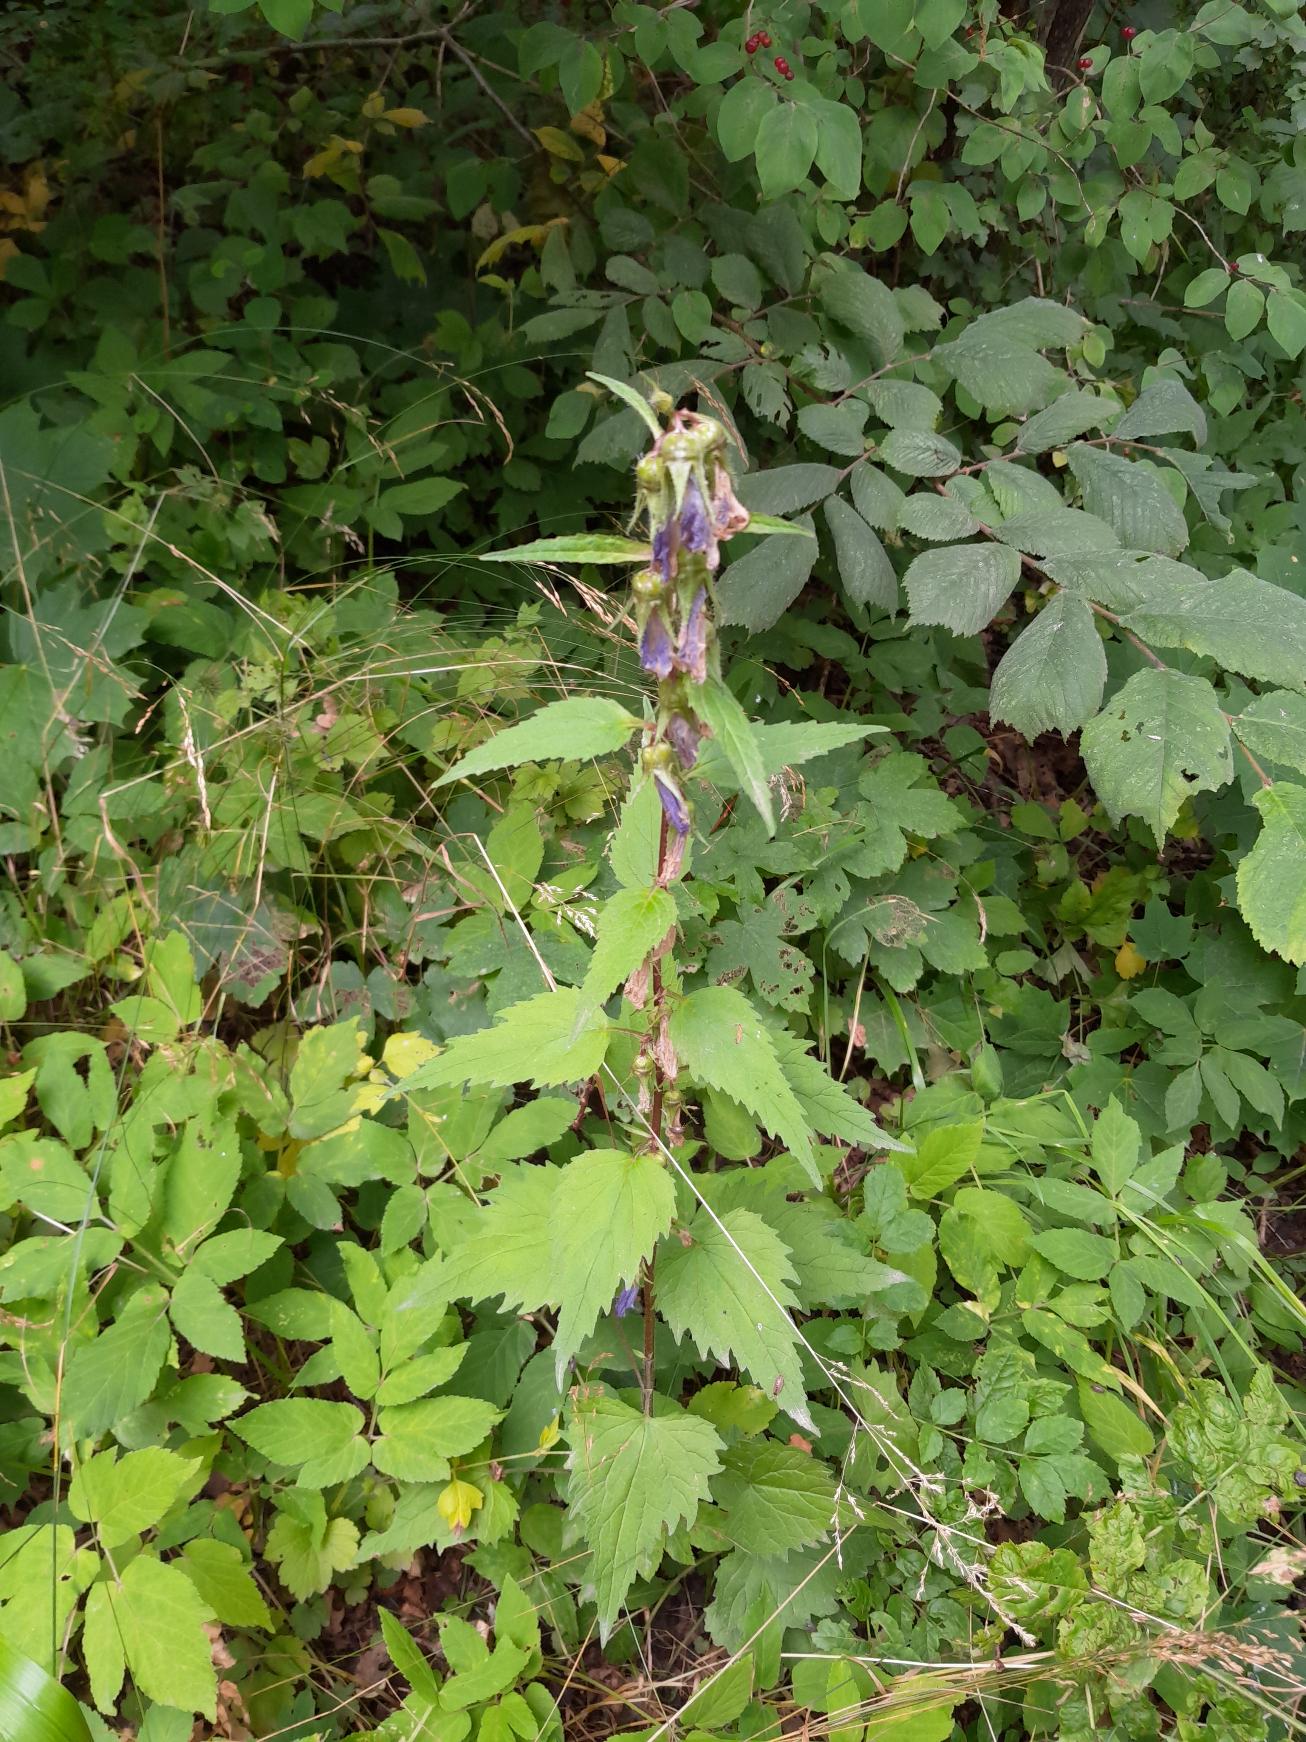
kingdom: Plantae
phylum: Tracheophyta
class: Magnoliopsida
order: Asterales
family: Campanulaceae
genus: Campanula
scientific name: Campanula trachelium
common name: Nælde-klokke
